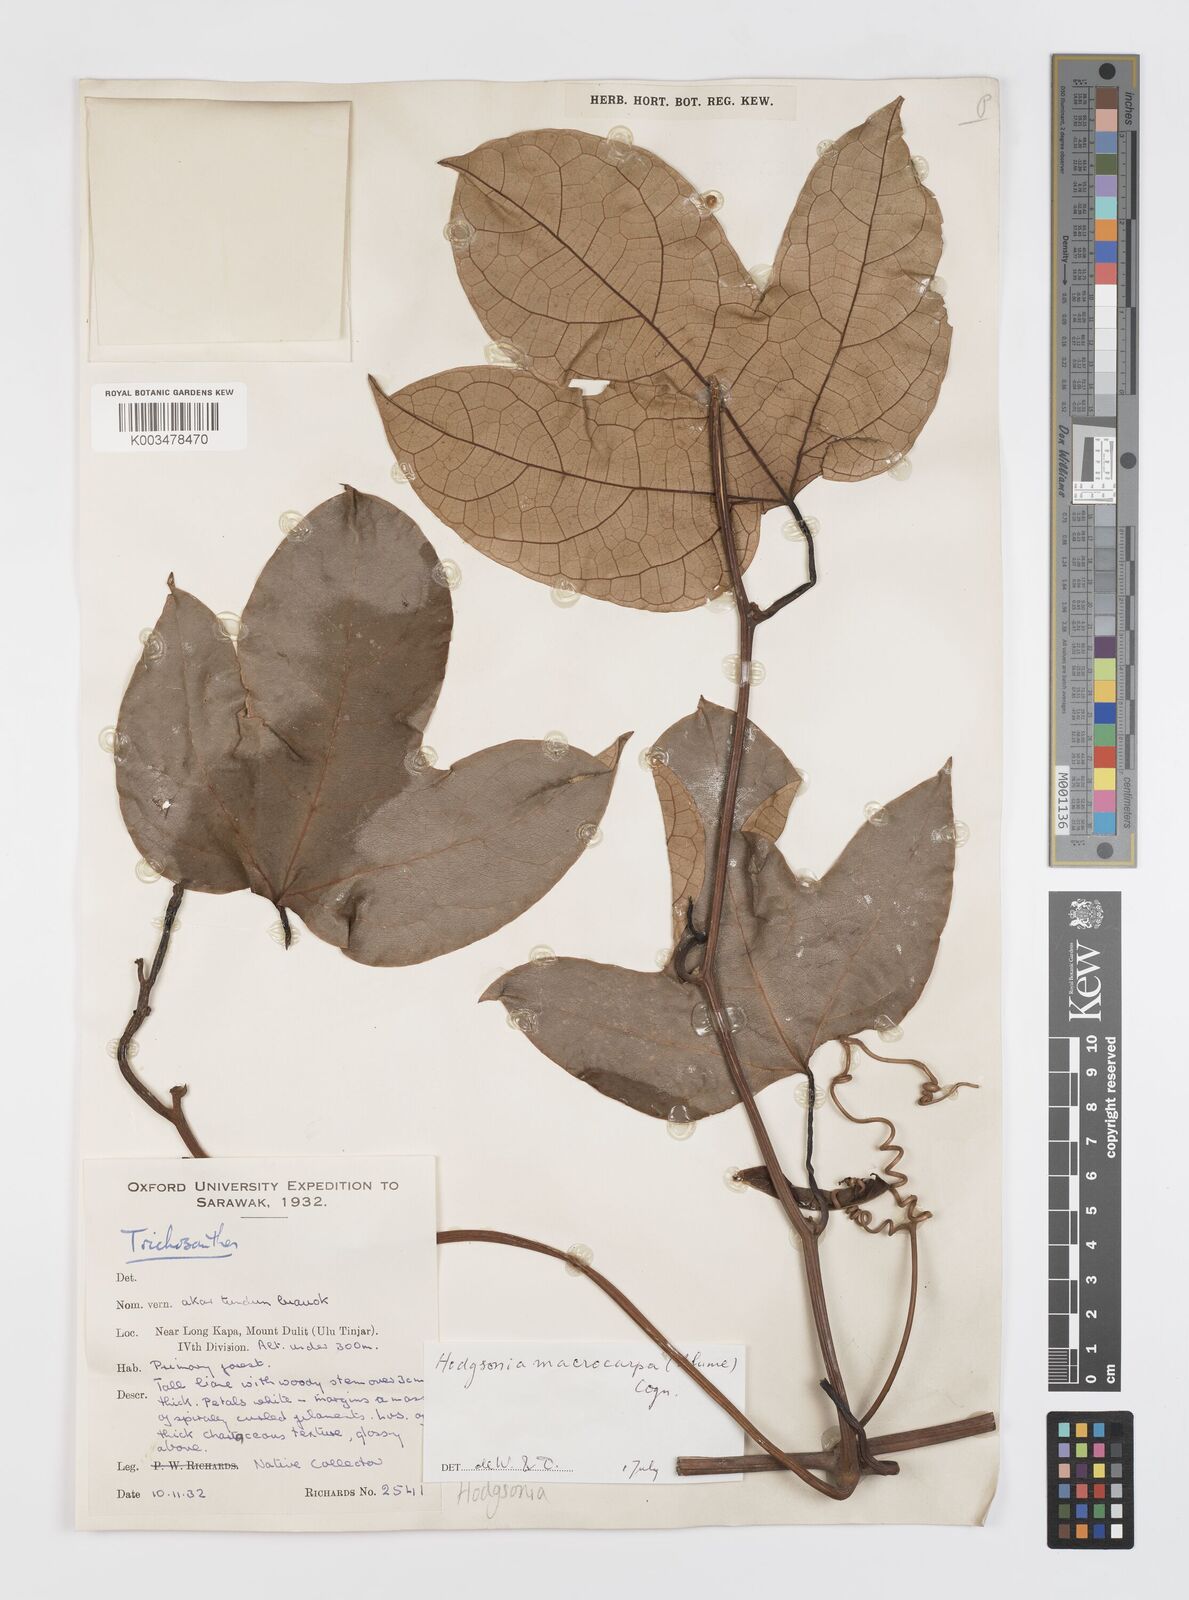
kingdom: Plantae
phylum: Tracheophyta
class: Magnoliopsida
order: Cucurbitales
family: Cucurbitaceae
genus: Hodgsonia
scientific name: Hodgsonia macrocarpa
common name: Chinese lardfruit
